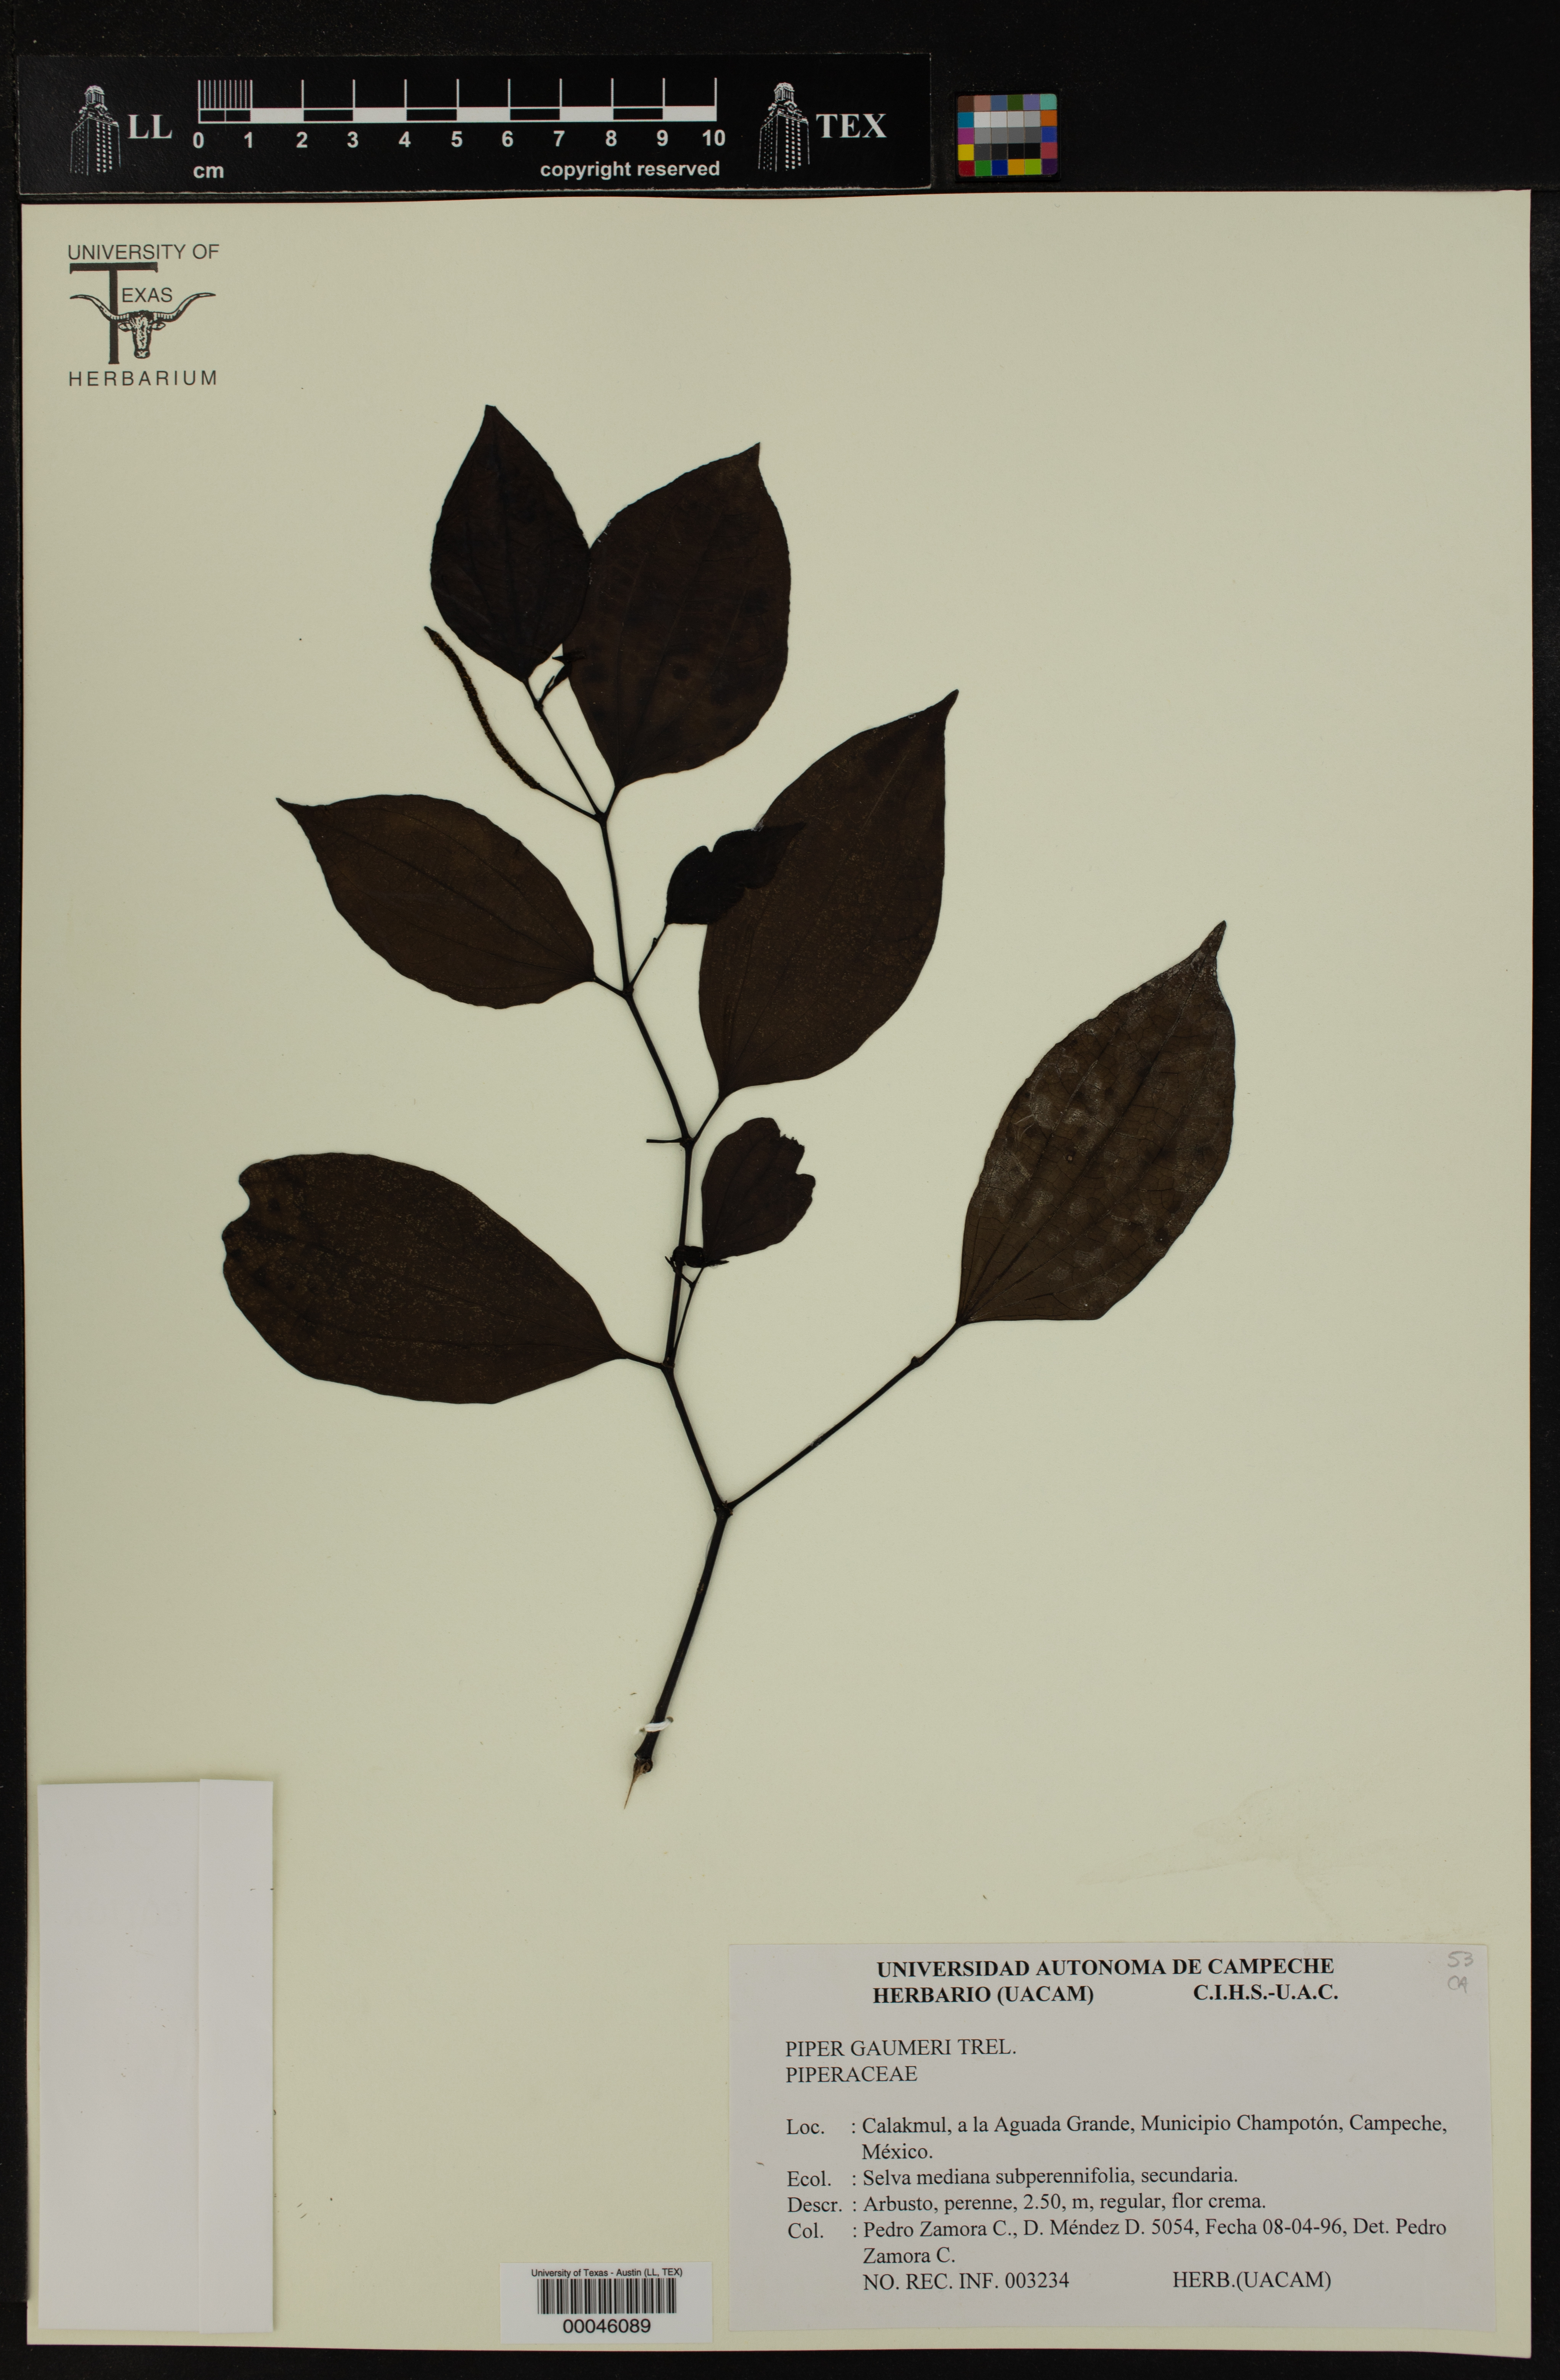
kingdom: Plantae
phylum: Tracheophyta
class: Magnoliopsida
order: Piperales
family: Piperaceae
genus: Piper
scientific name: Piper gaumeri
